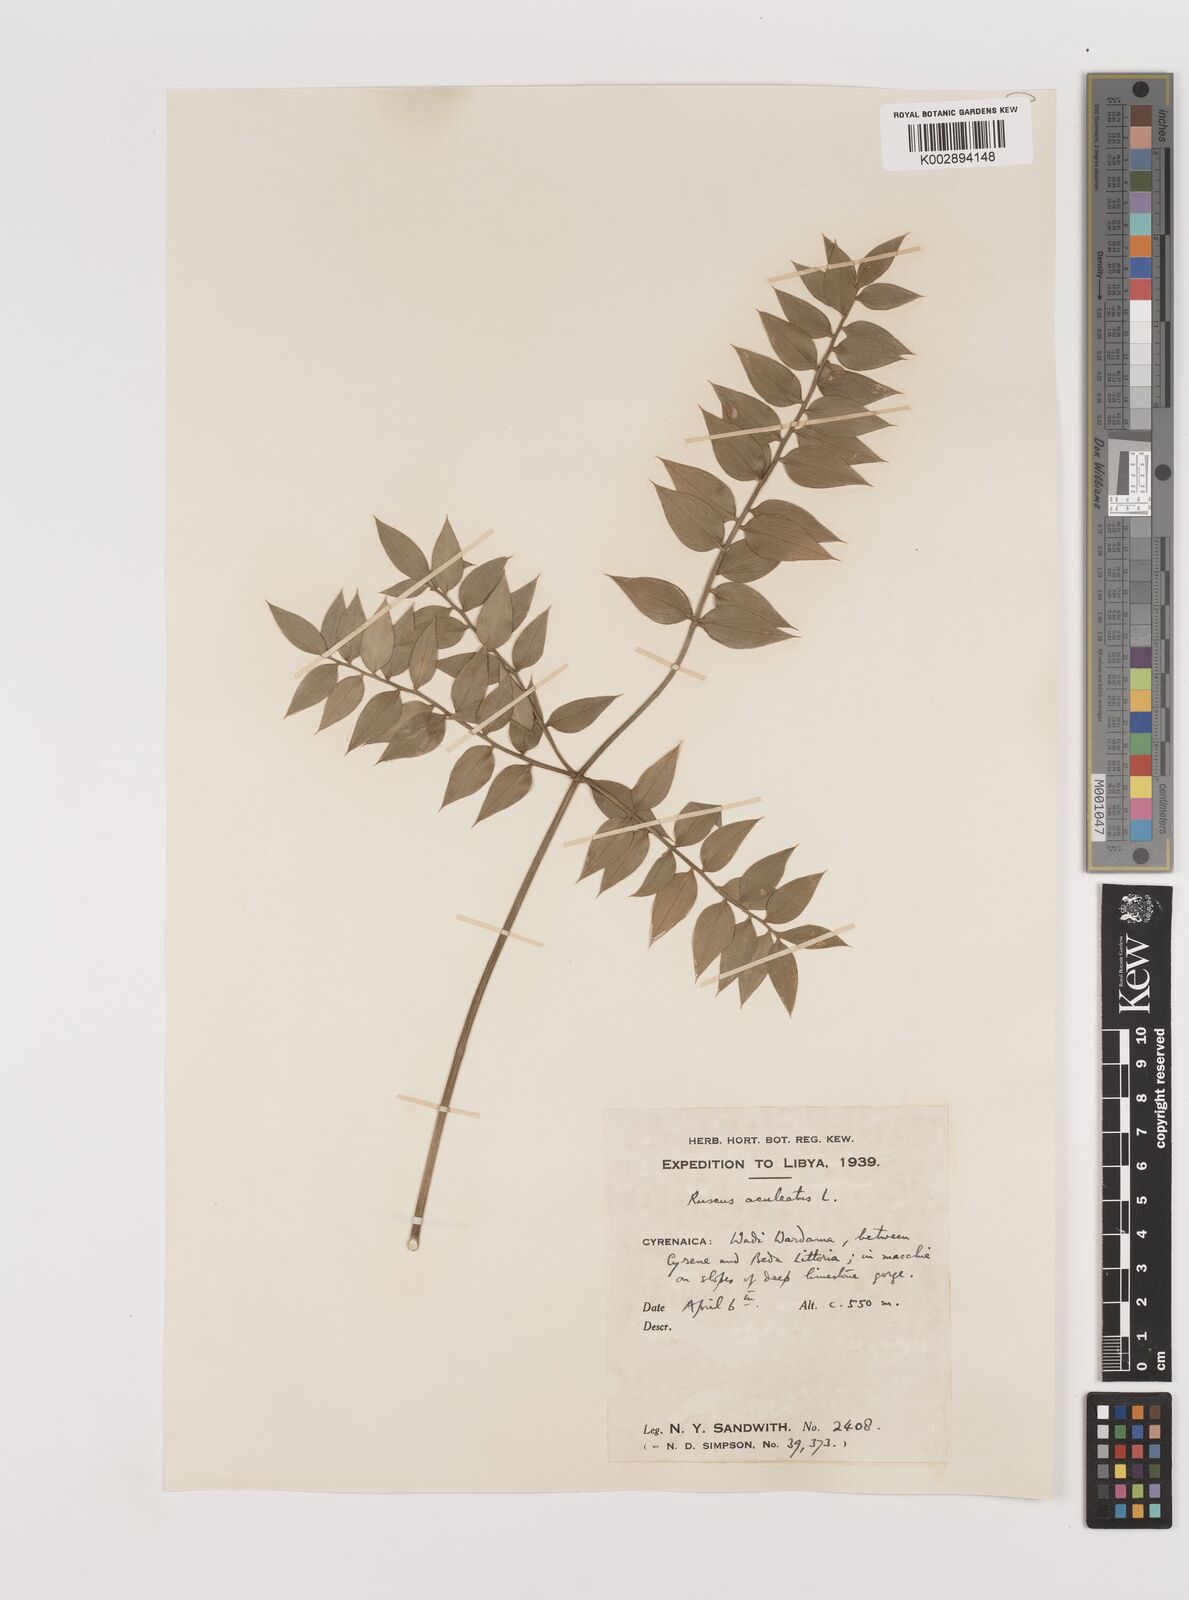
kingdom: Plantae
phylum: Tracheophyta
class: Liliopsida
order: Asparagales
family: Asparagaceae
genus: Ruscus
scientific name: Ruscus aculeatus
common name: Butcher's-broom
